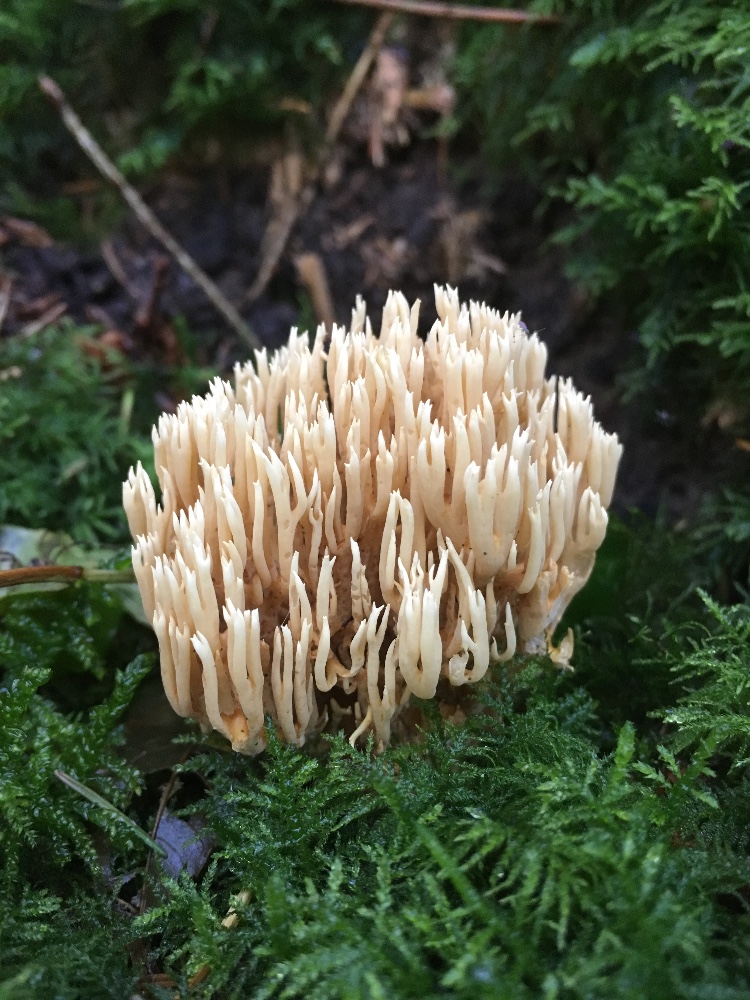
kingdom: Fungi
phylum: Basidiomycota
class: Agaricomycetes
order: Gomphales
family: Gomphaceae
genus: Phaeoclavulina
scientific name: Phaeoclavulina eumorpha
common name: gran-koralsvamp
